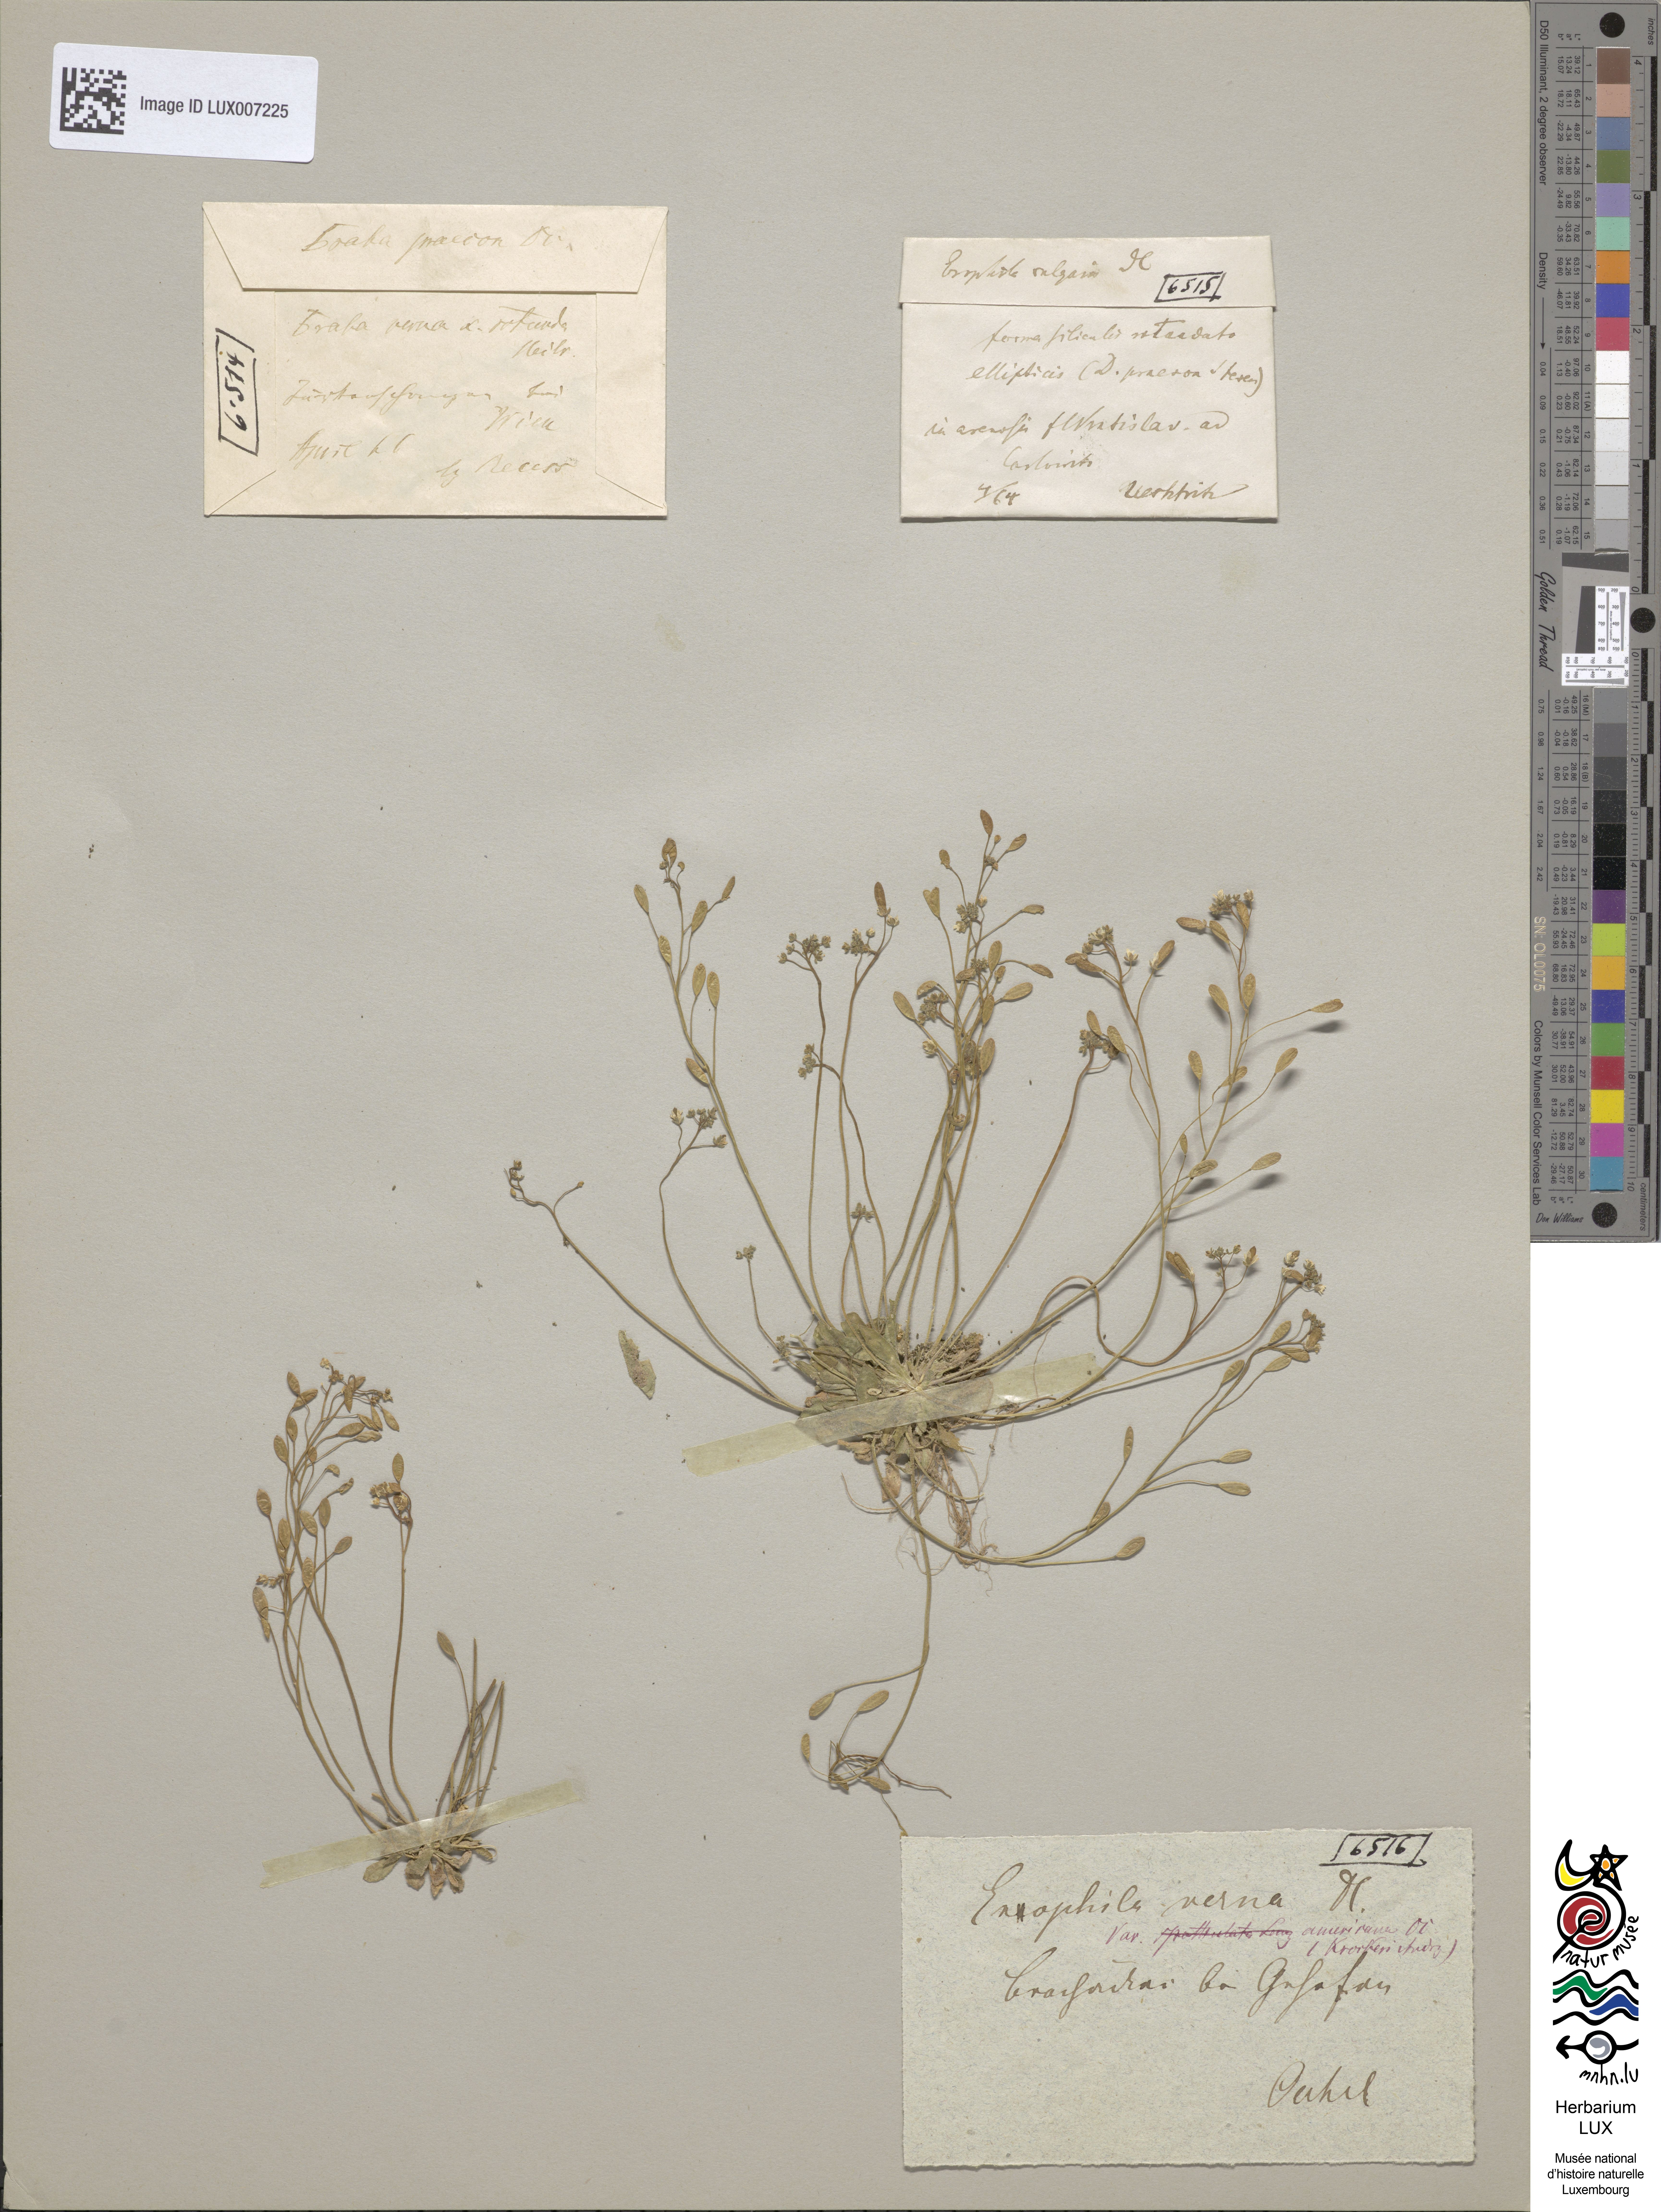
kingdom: Plantae
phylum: Tracheophyta
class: Magnoliopsida
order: Brassicales
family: Brassicaceae
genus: Draba
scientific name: Draba verna
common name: Spring draba
